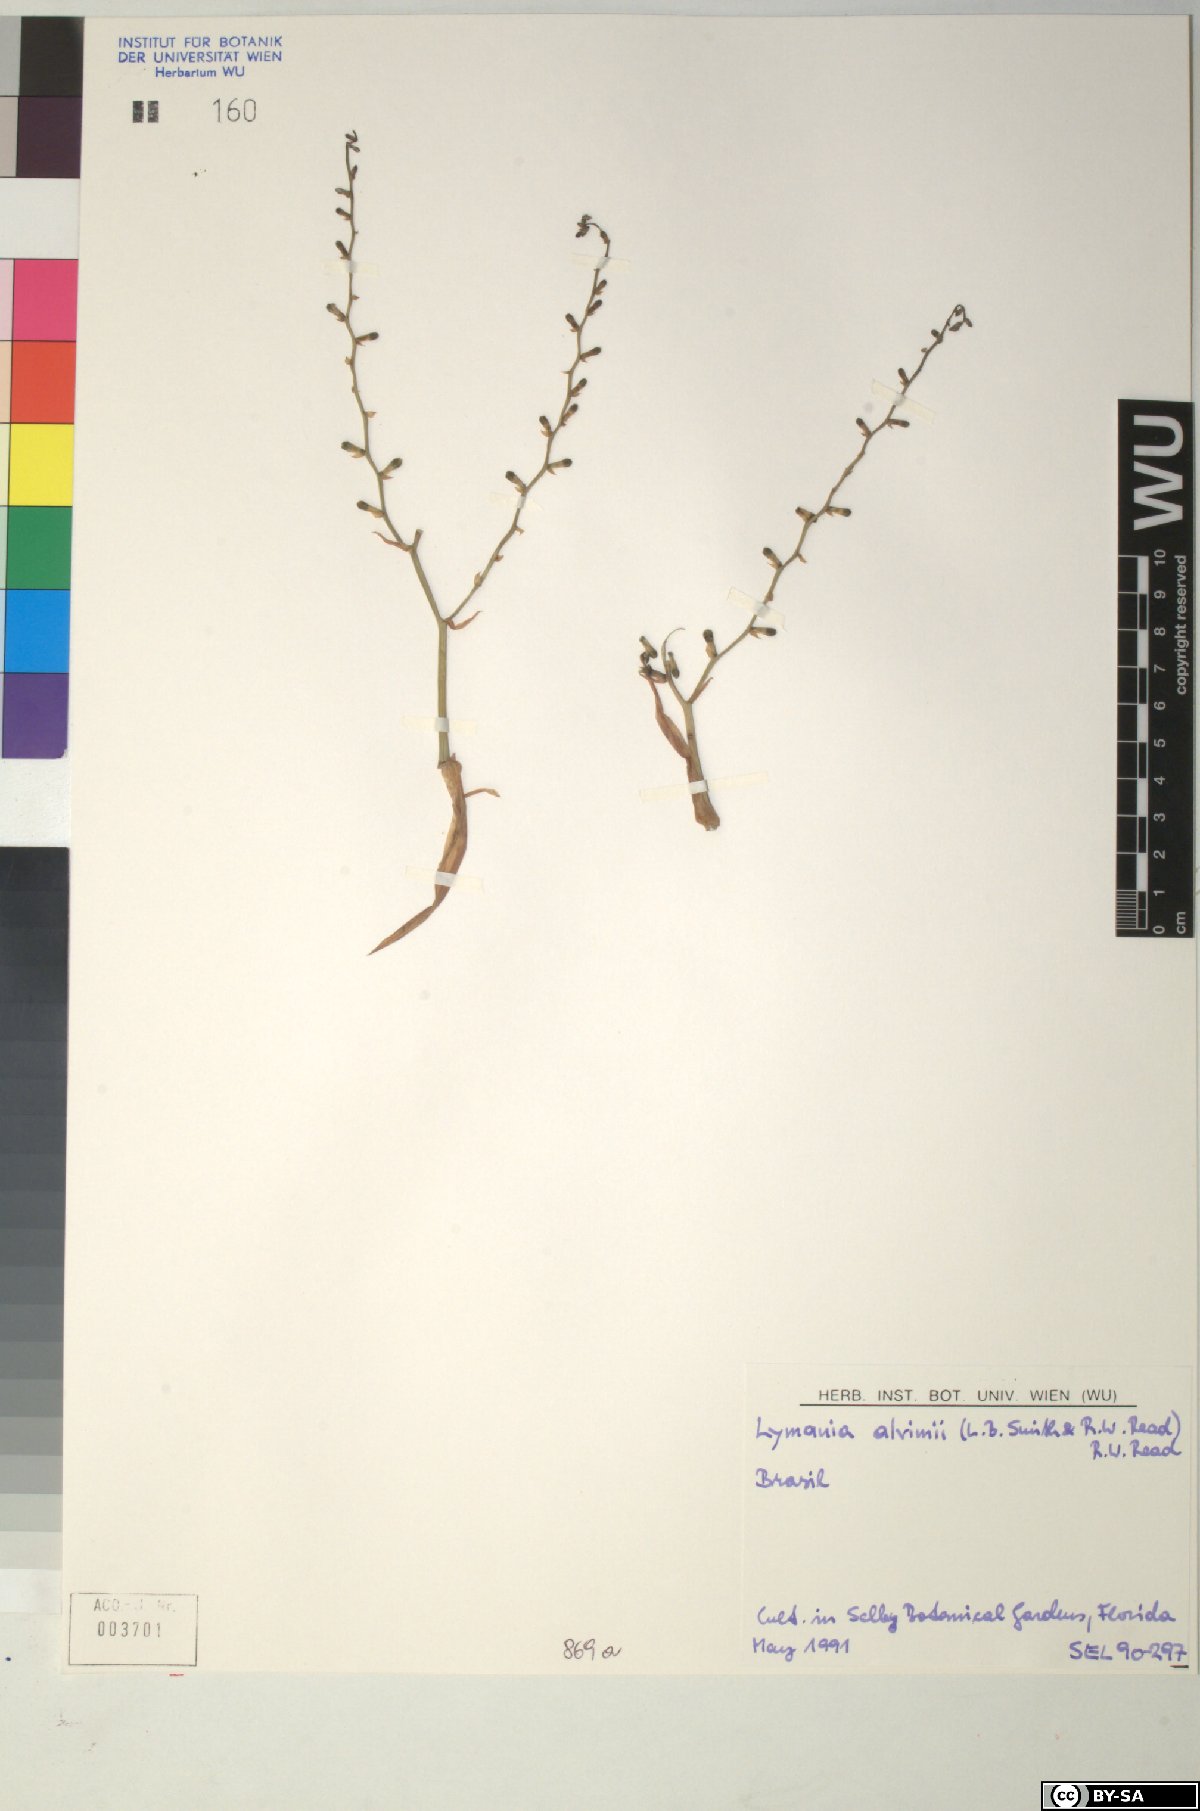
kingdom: Plantae
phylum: Tracheophyta
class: Liliopsida
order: Poales
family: Bromeliaceae
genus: Lymania
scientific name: Lymania alvimii
